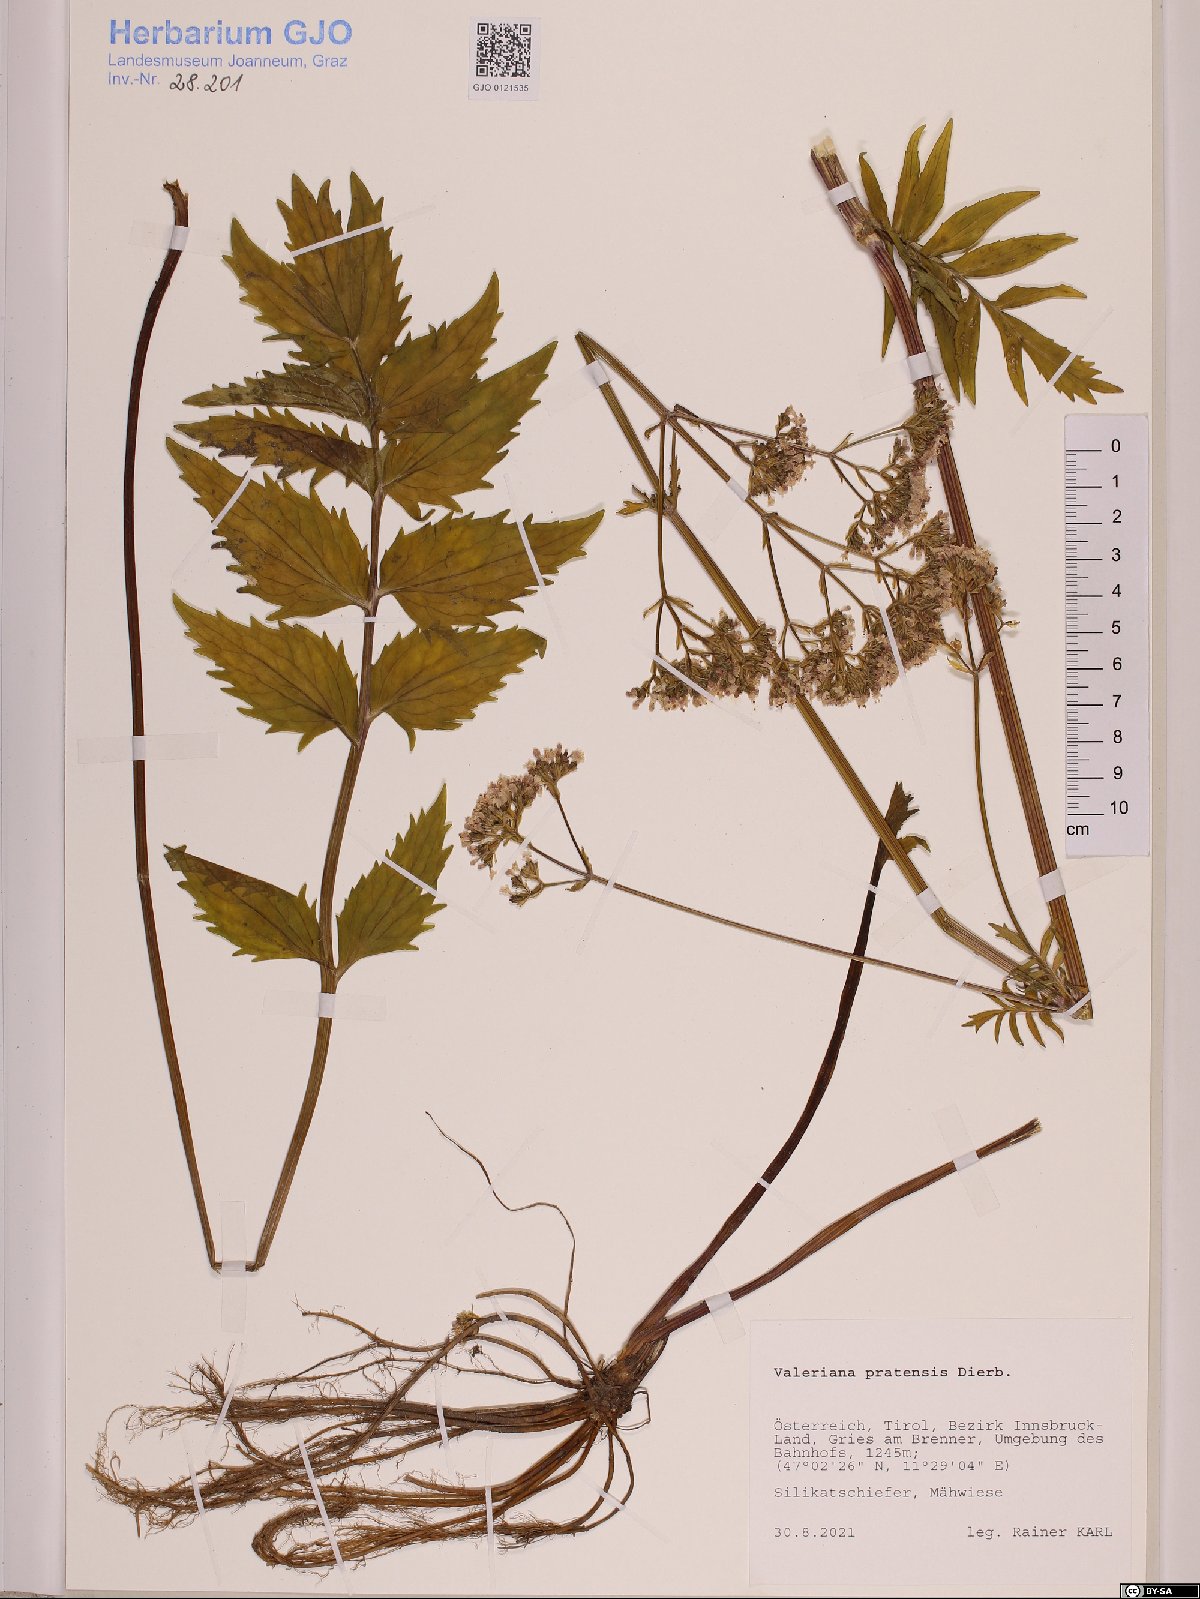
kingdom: Plantae
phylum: Tracheophyta
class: Magnoliopsida
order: Dipsacales
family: Caprifoliaceae
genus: Valeriana
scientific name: Valeriana pratensis
